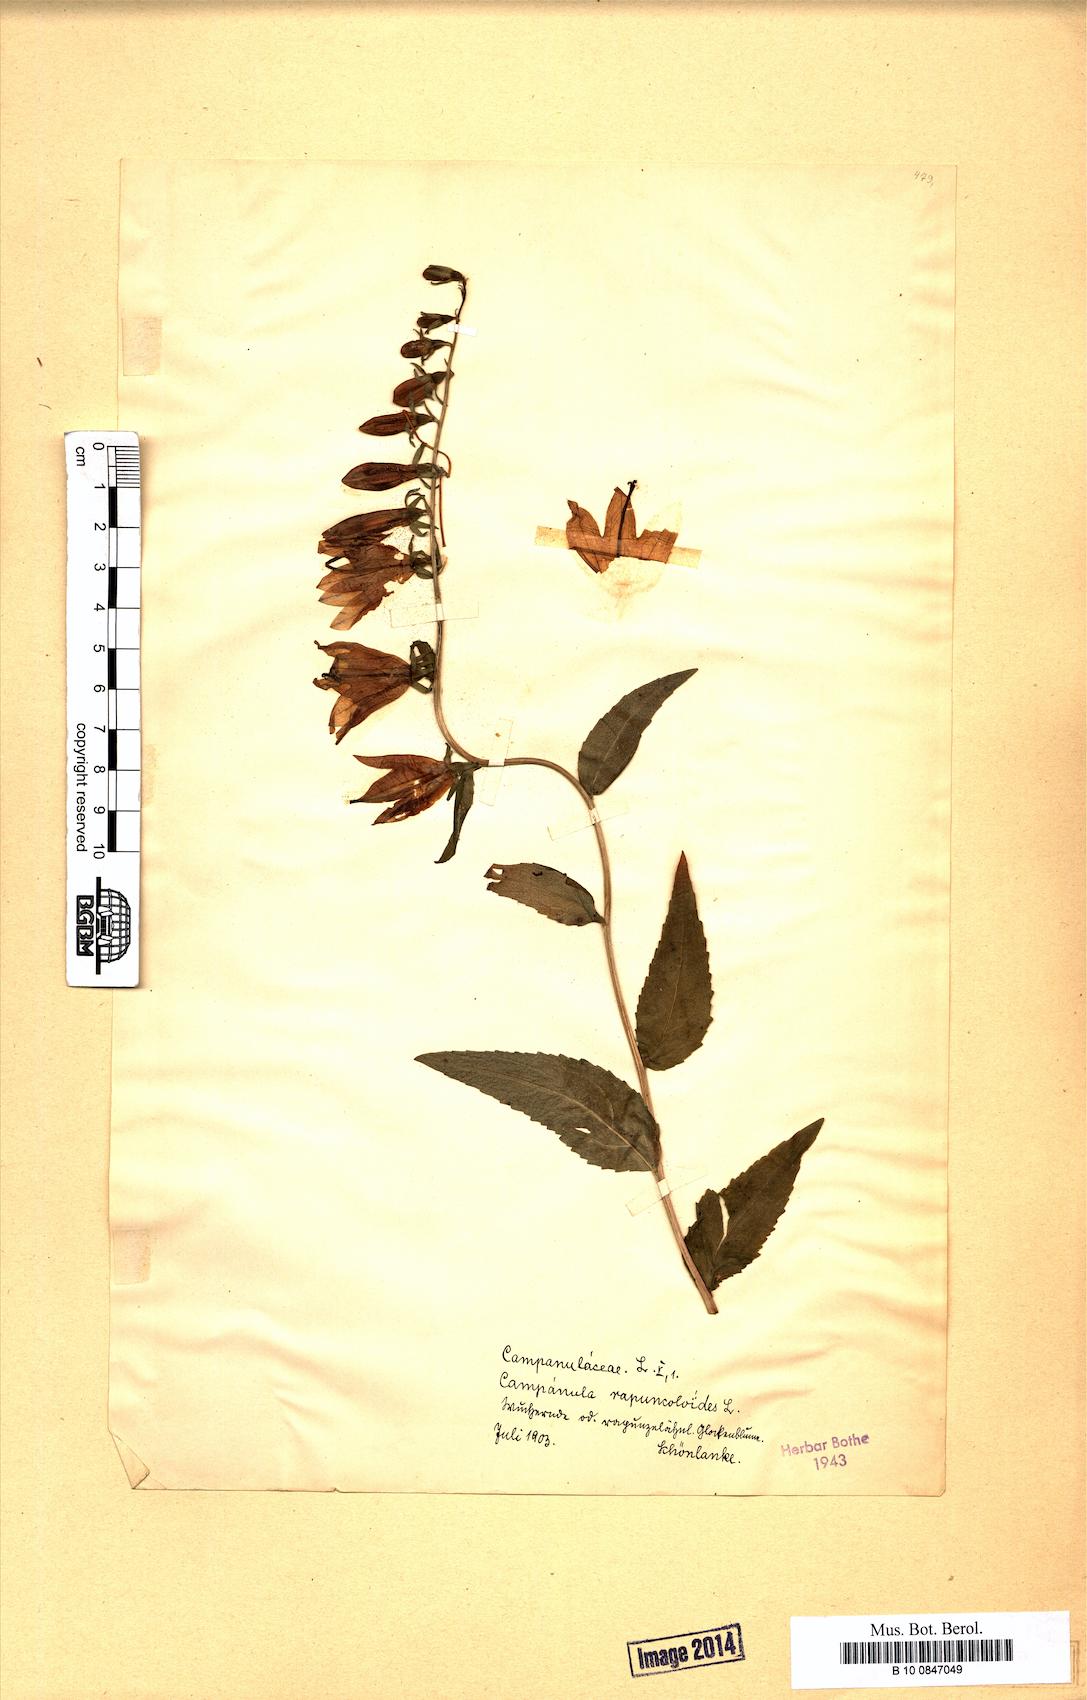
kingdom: Plantae
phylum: Tracheophyta
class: Magnoliopsida
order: Asterales
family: Campanulaceae
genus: Campanula
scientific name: Campanula rapunculoides
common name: Creeping bellflower
